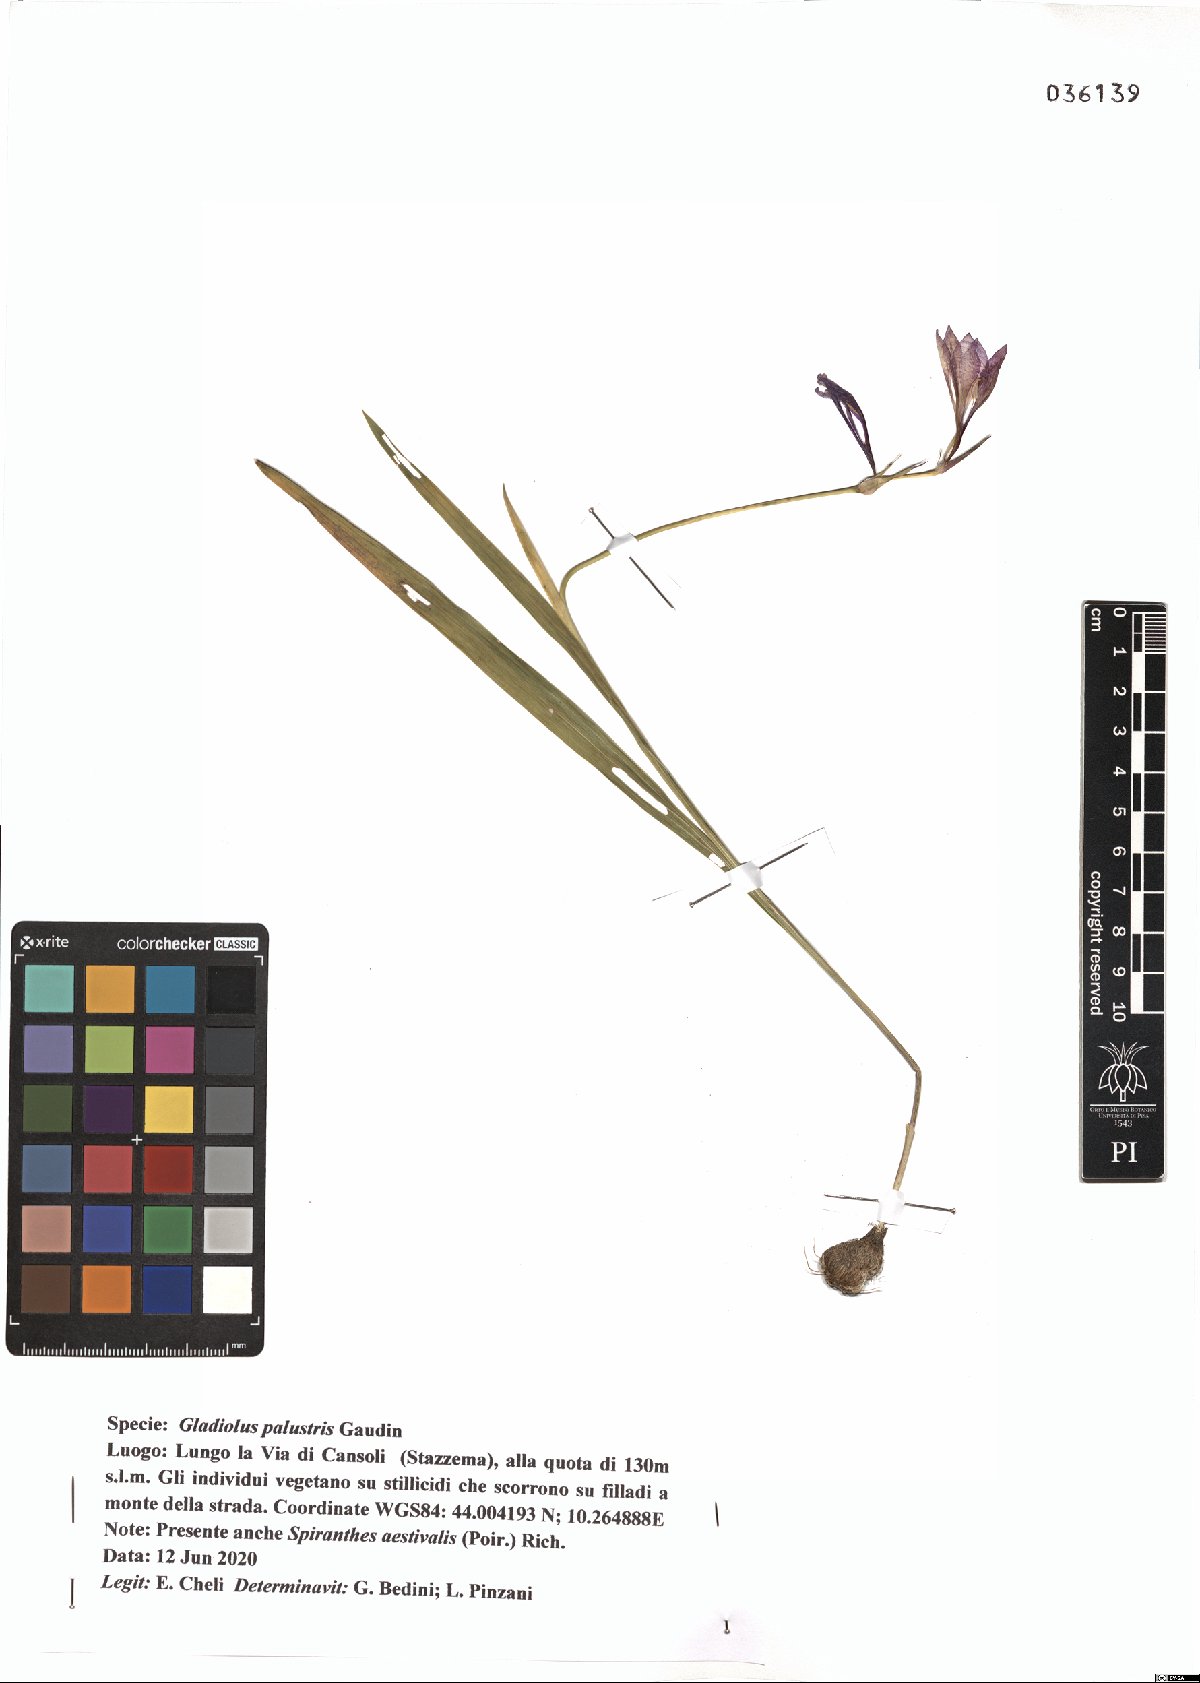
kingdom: Plantae
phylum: Tracheophyta
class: Liliopsida
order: Asparagales
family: Iridaceae
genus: Gladiolus
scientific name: Gladiolus palustris
